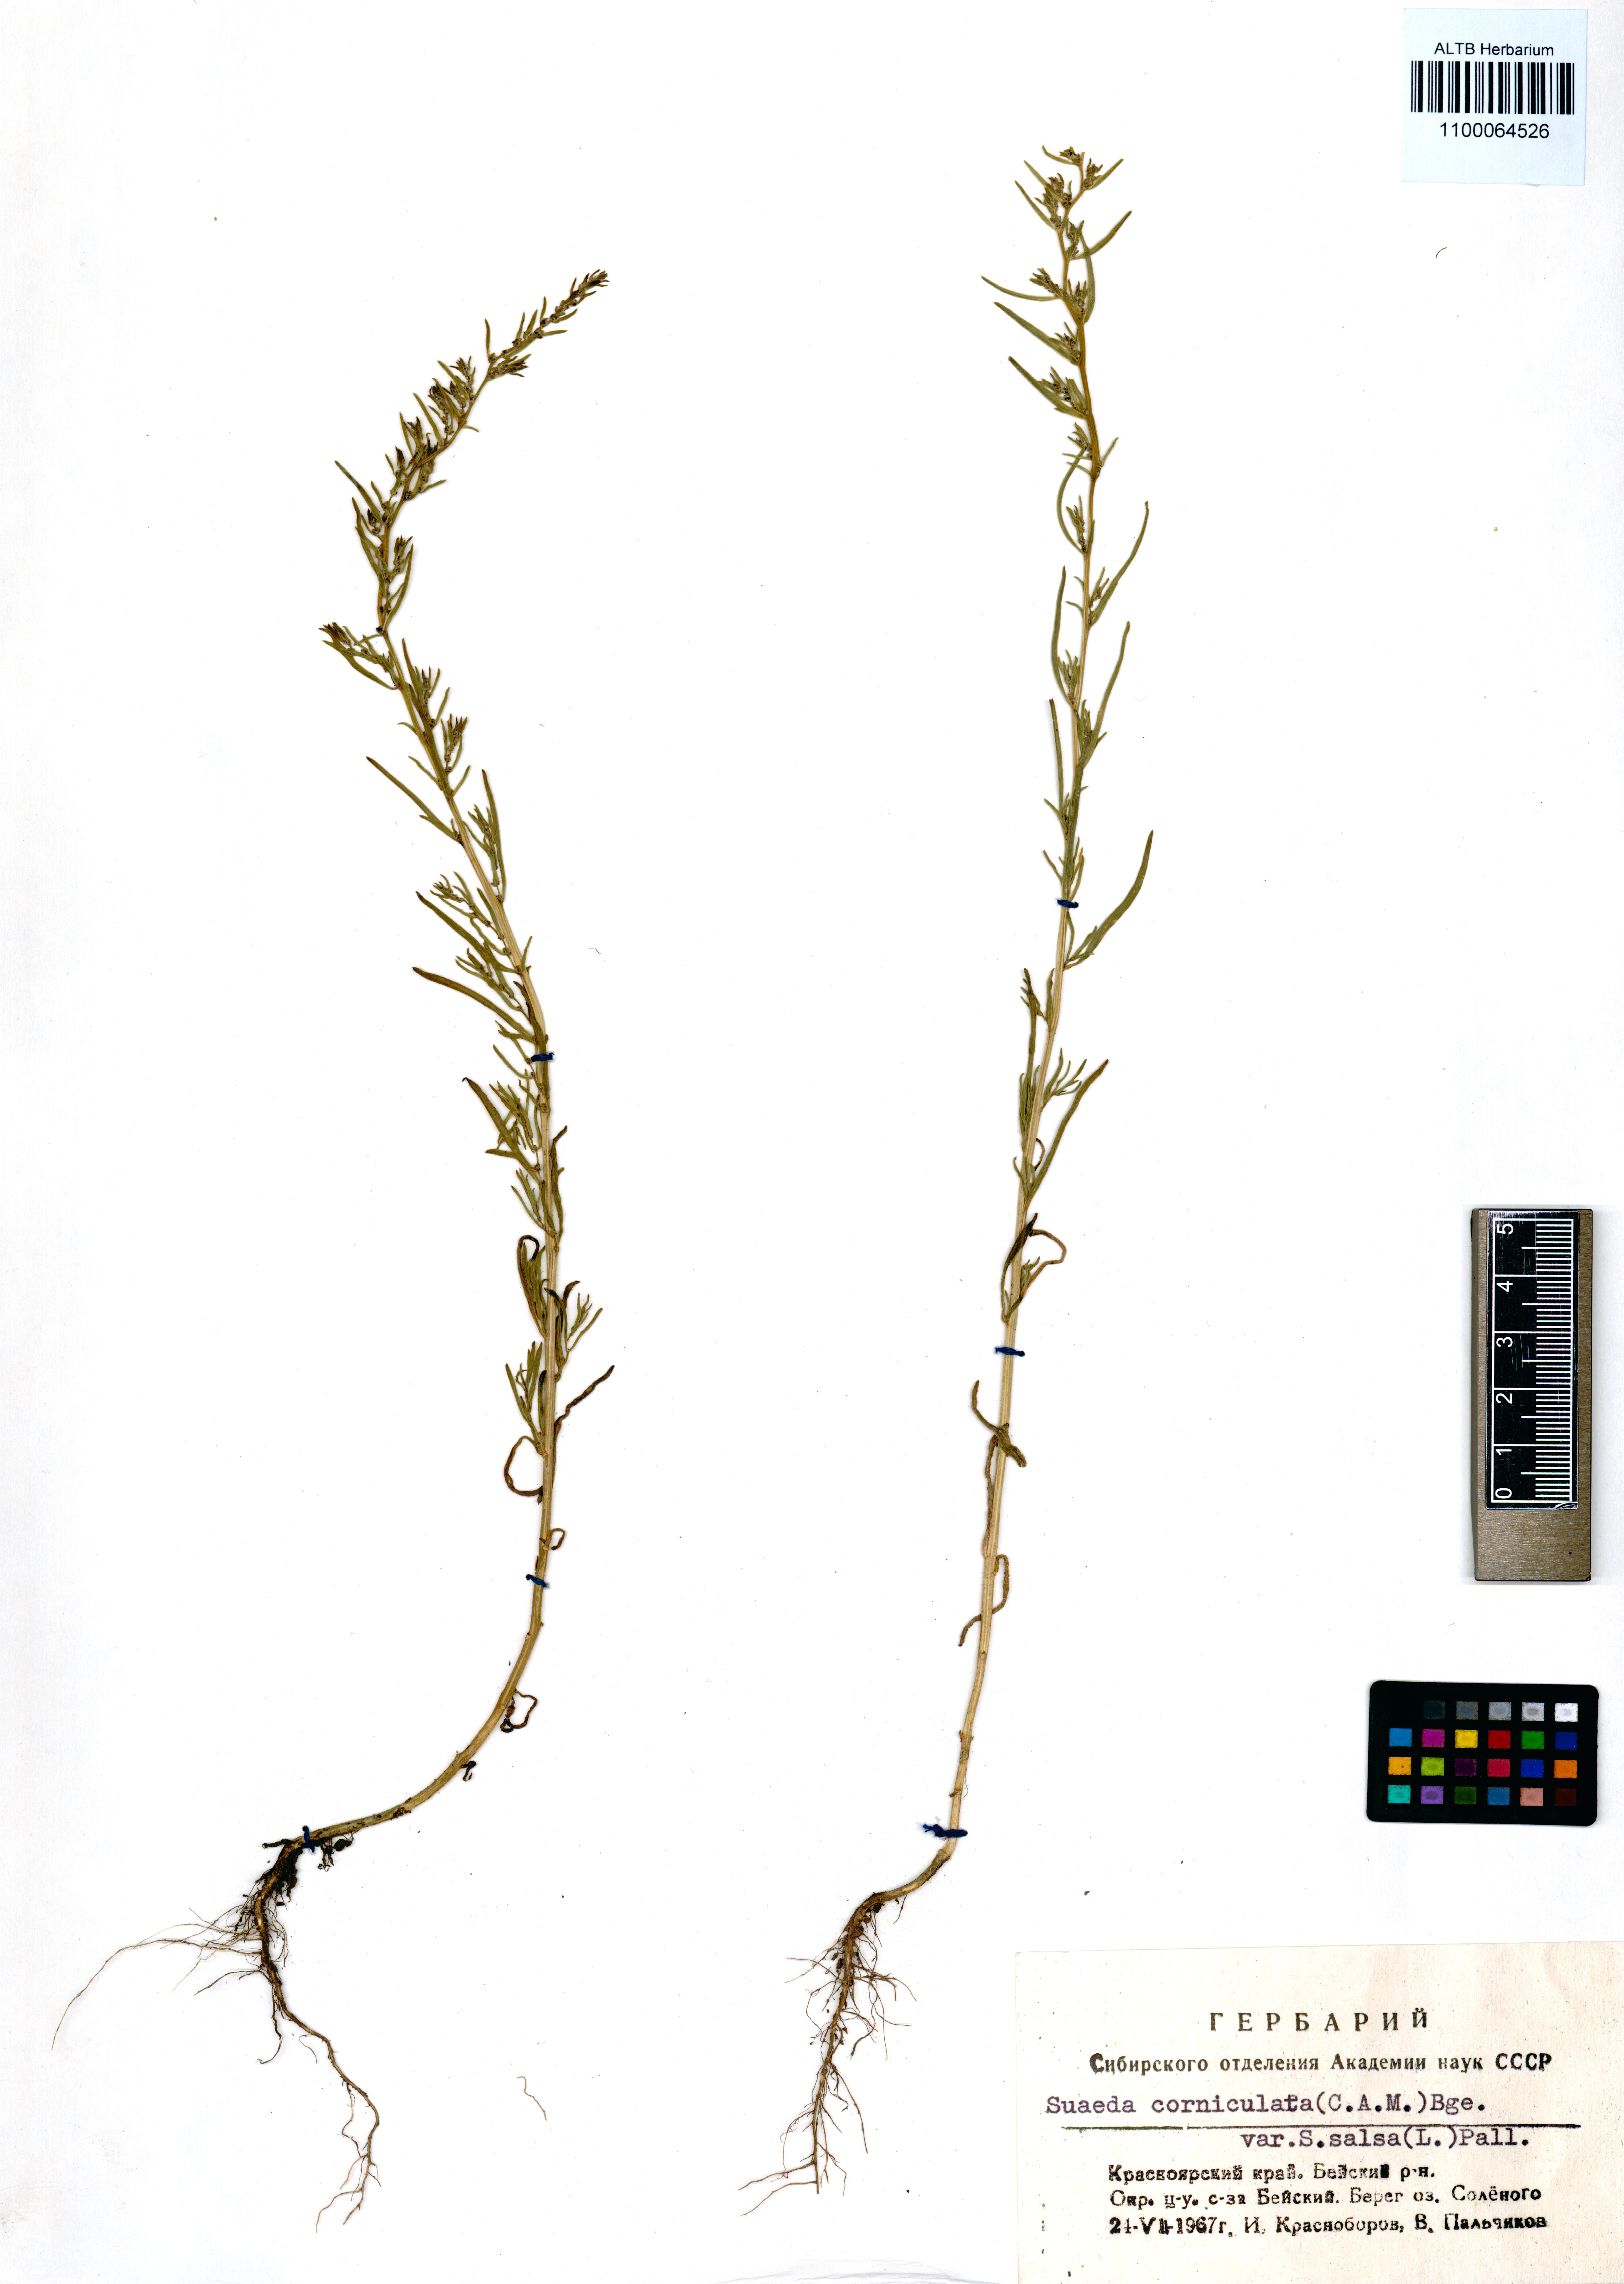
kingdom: Plantae
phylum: Tracheophyta
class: Magnoliopsida
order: Caryophyllales
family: Amaranthaceae
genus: Suaeda
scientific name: Suaeda corniculata
